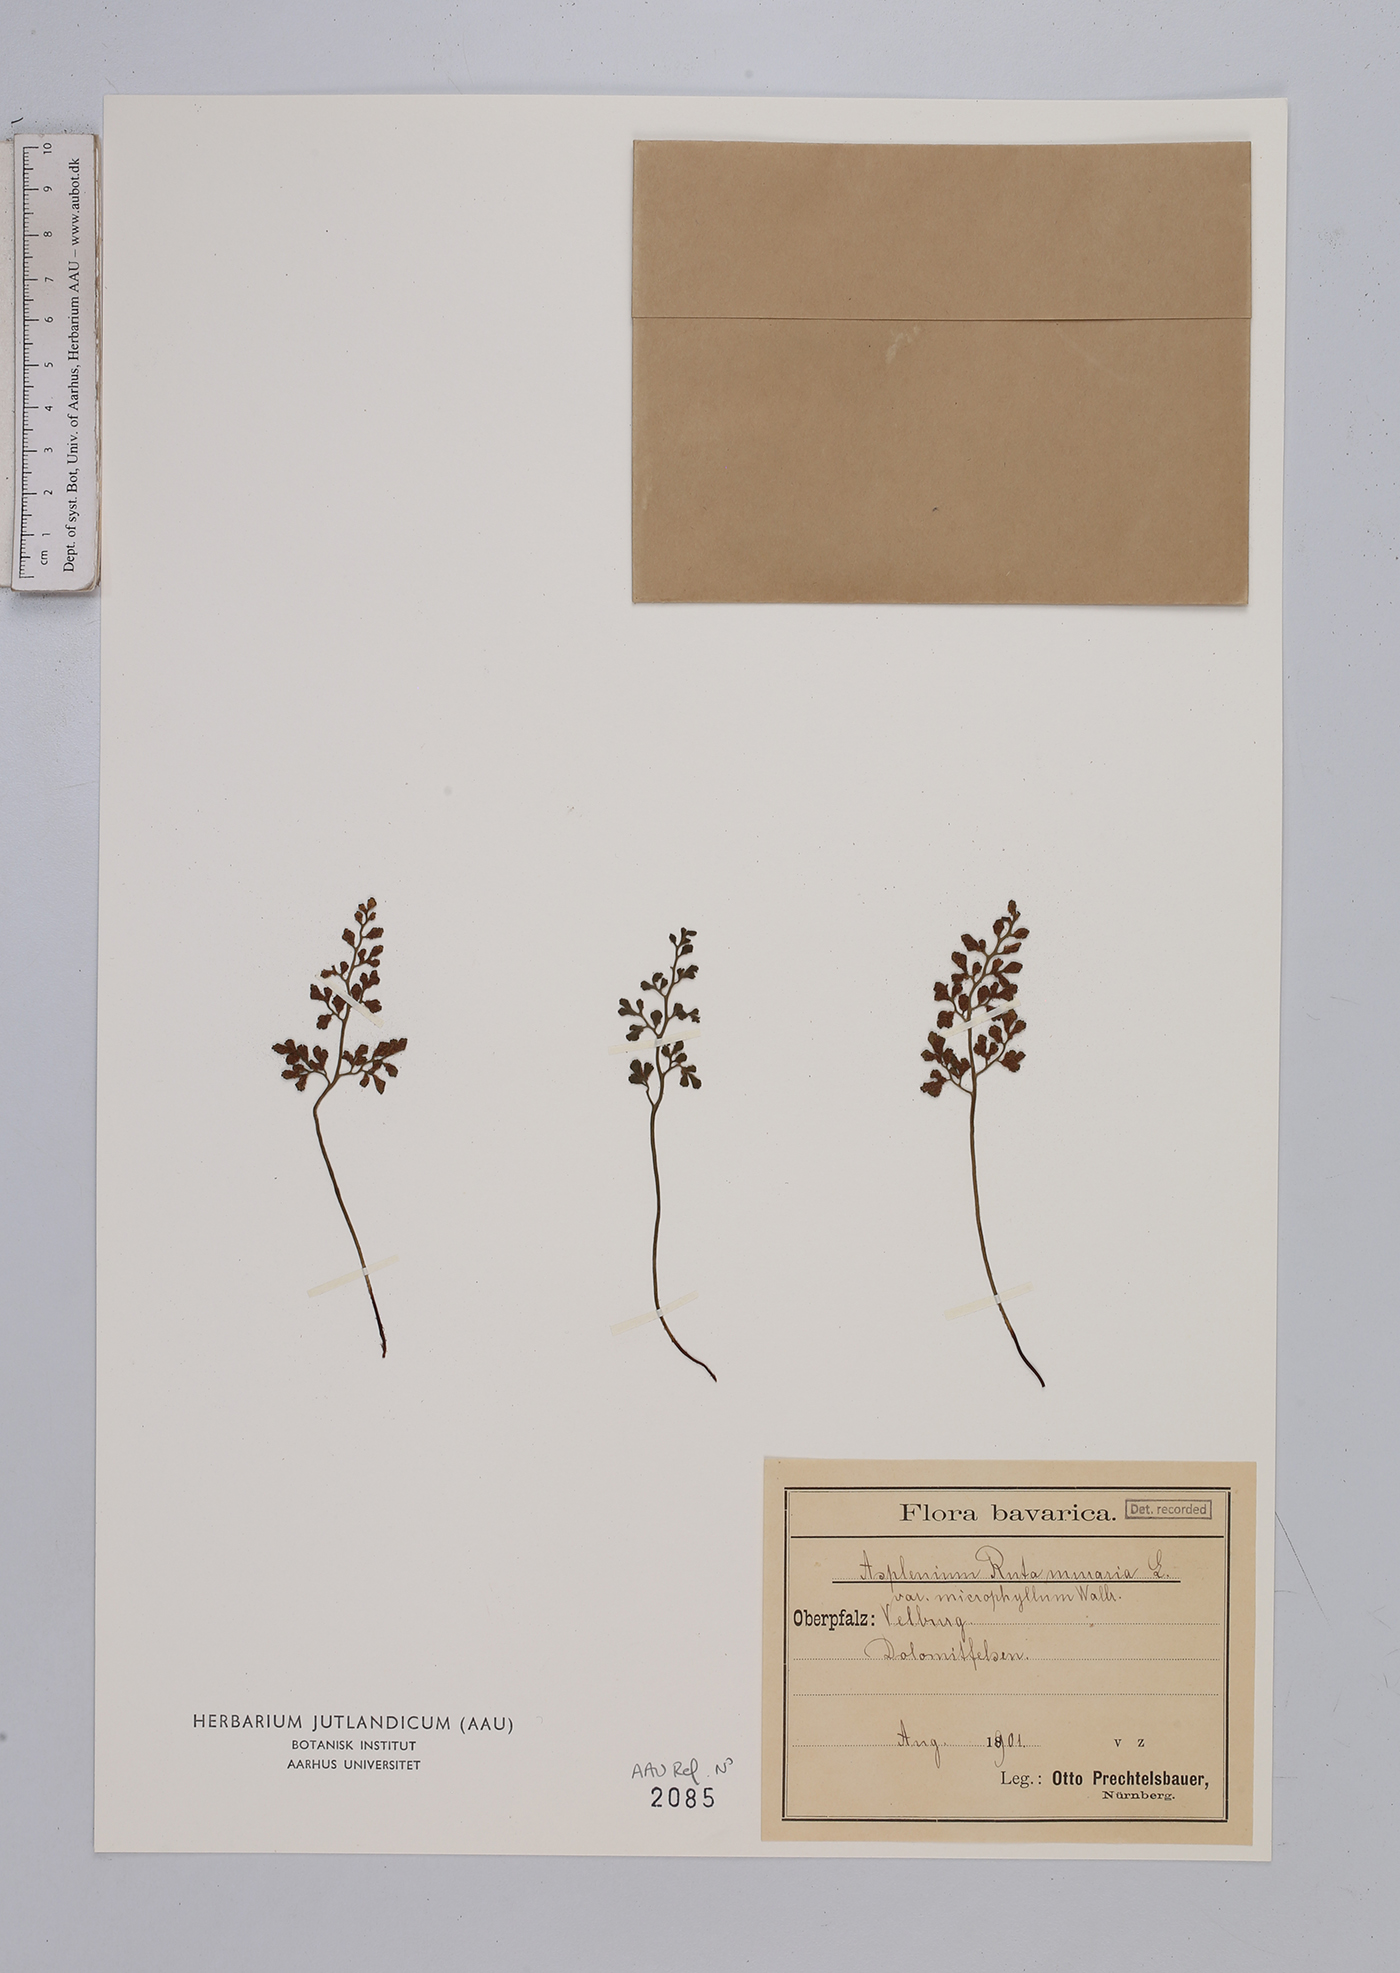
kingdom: Plantae
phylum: Tracheophyta
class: Polypodiopsida
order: Polypodiales
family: Aspleniaceae
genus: Asplenium
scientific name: Asplenium ruta-muraria
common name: Wall-rue
